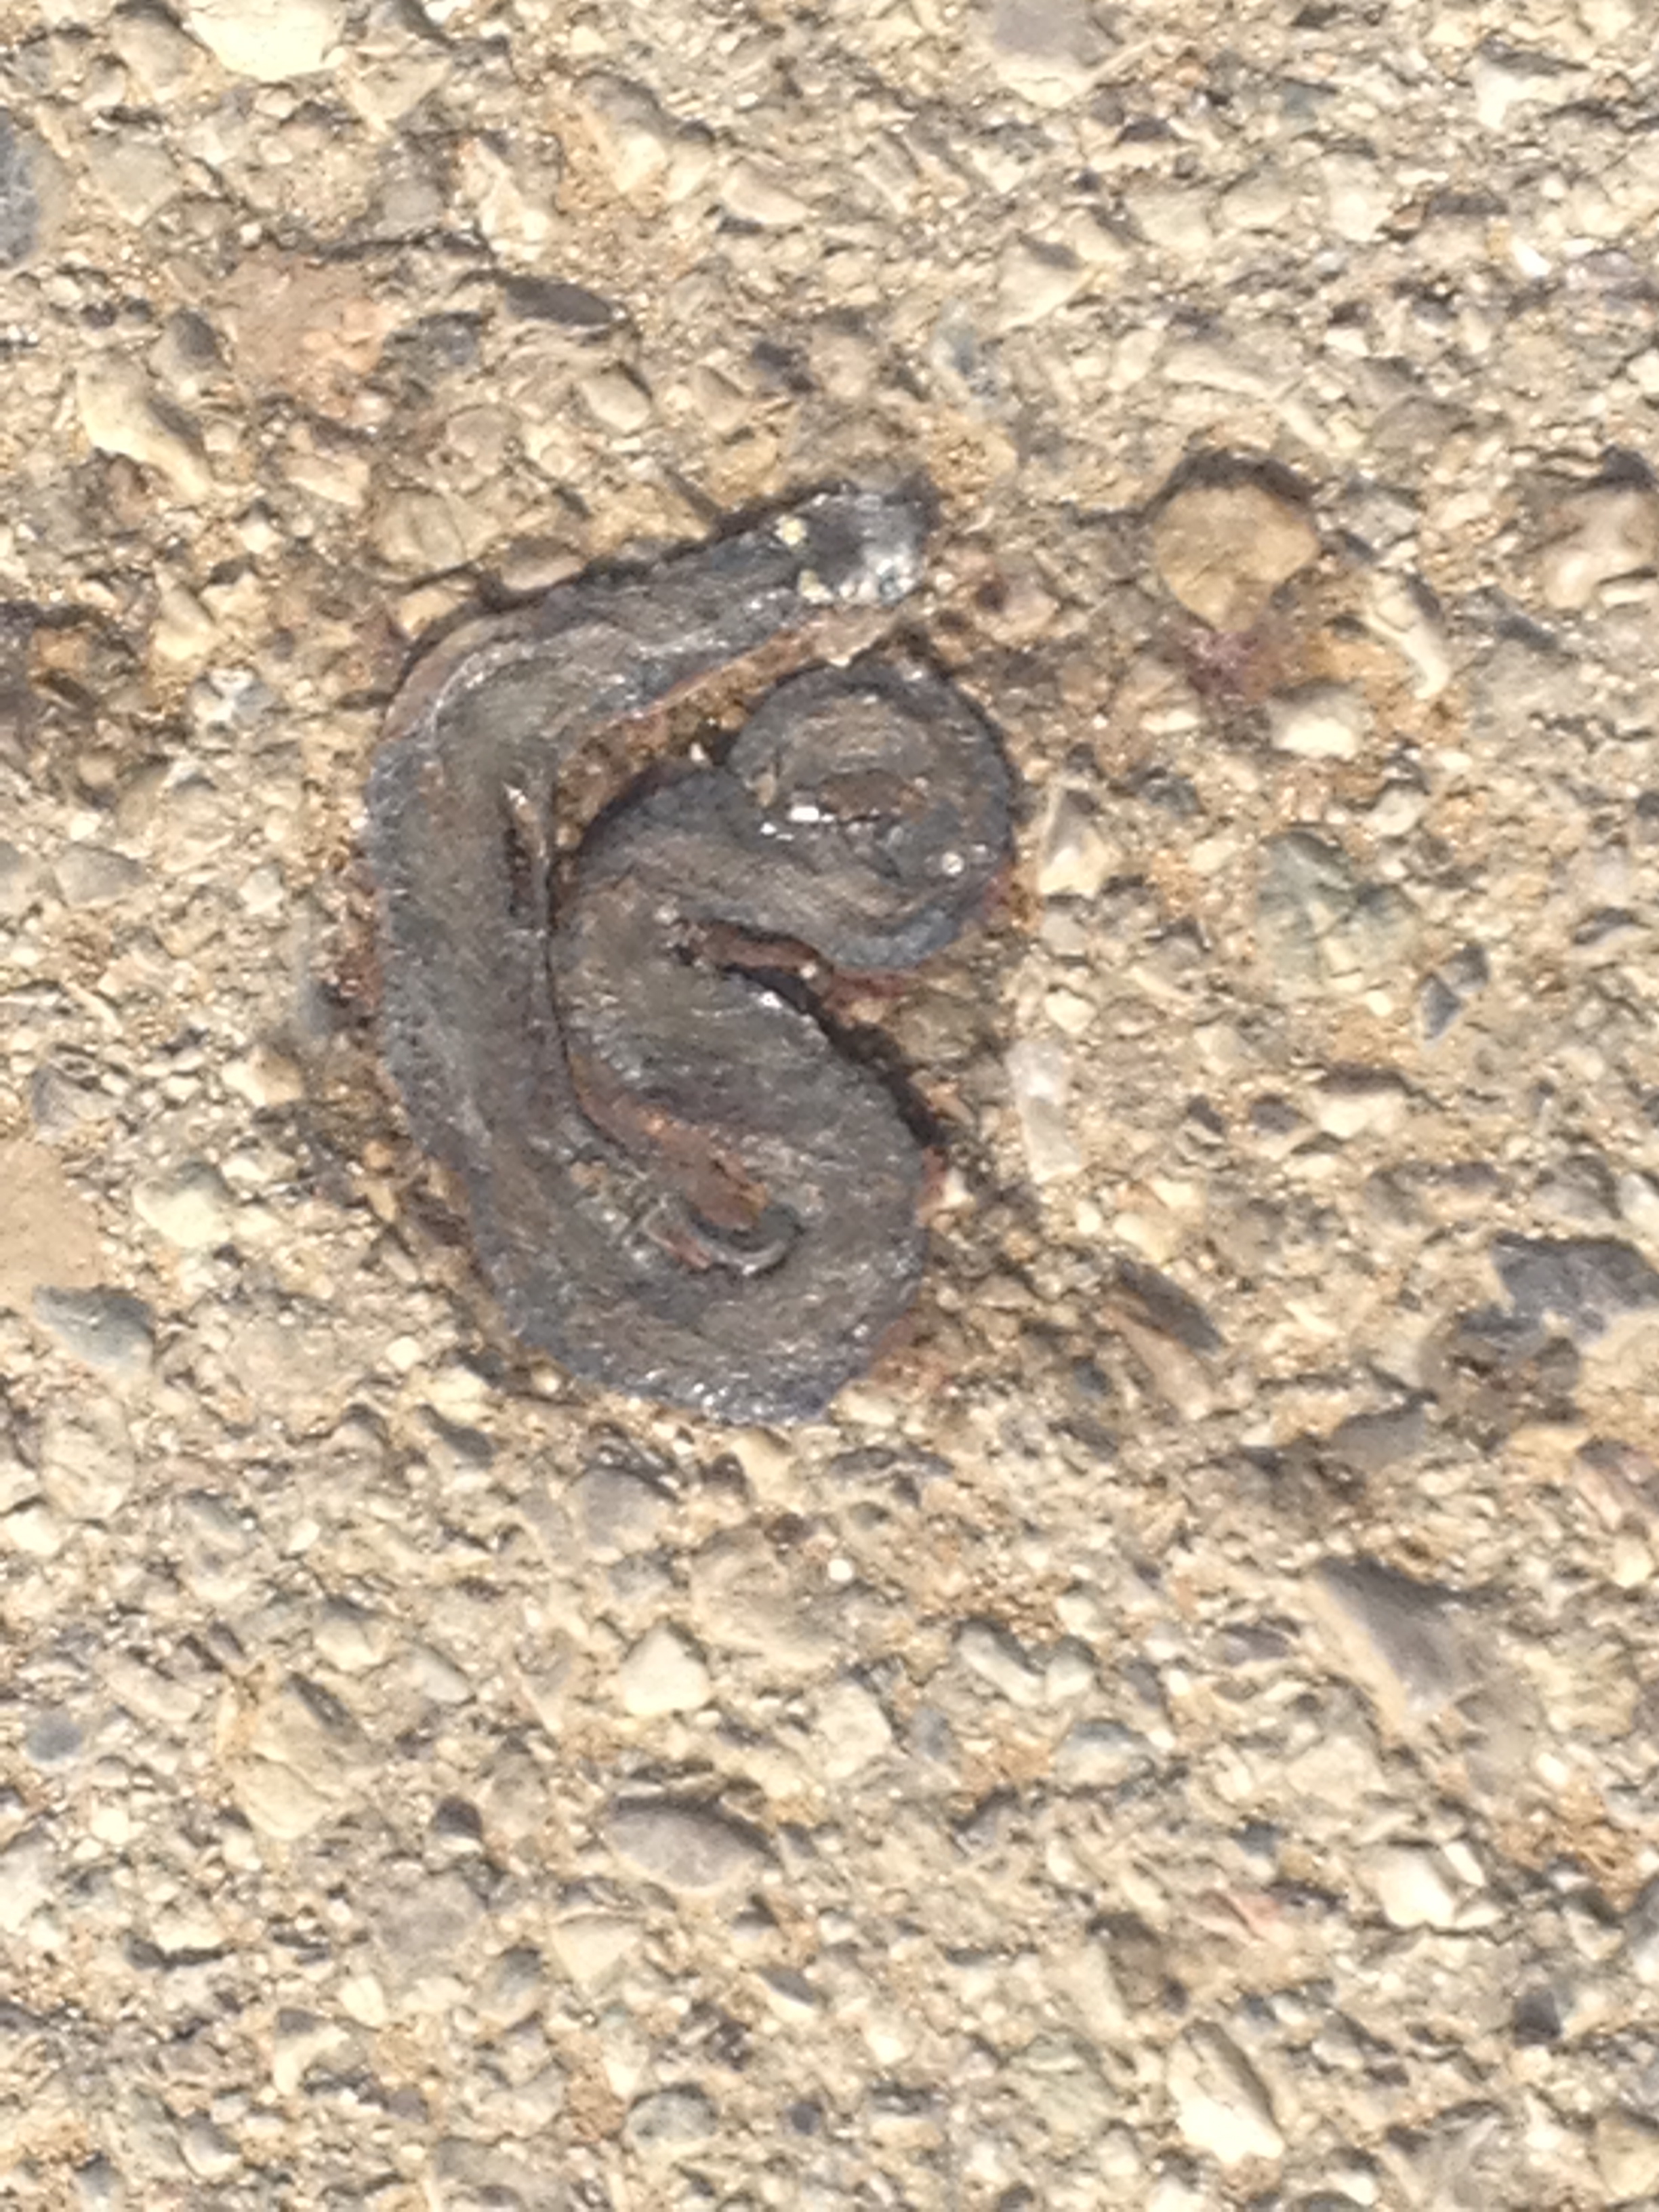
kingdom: Animalia
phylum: Chordata
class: Squamata
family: Colubridae
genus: Natrix
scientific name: Natrix natrix
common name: Grass snake
